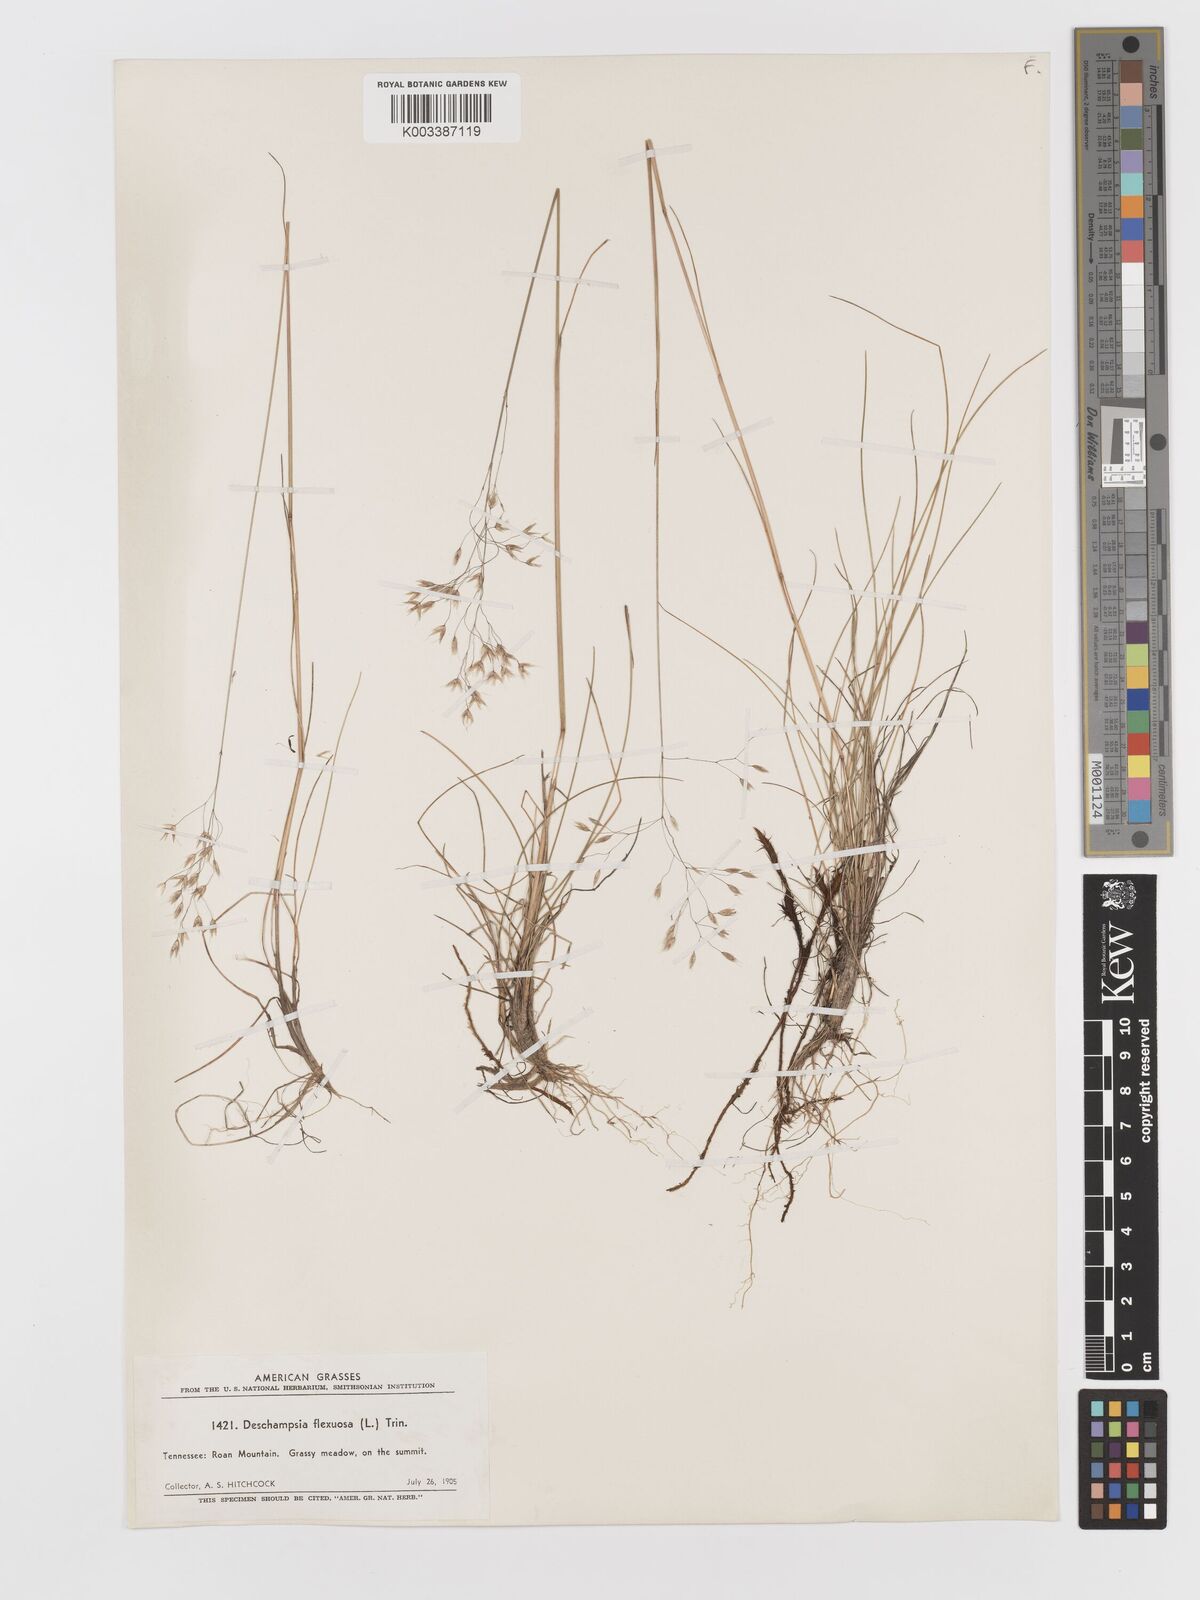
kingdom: Plantae
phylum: Tracheophyta
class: Liliopsida
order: Poales
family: Poaceae
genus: Avenella
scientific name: Avenella flexuosa
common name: Wavy hairgrass
